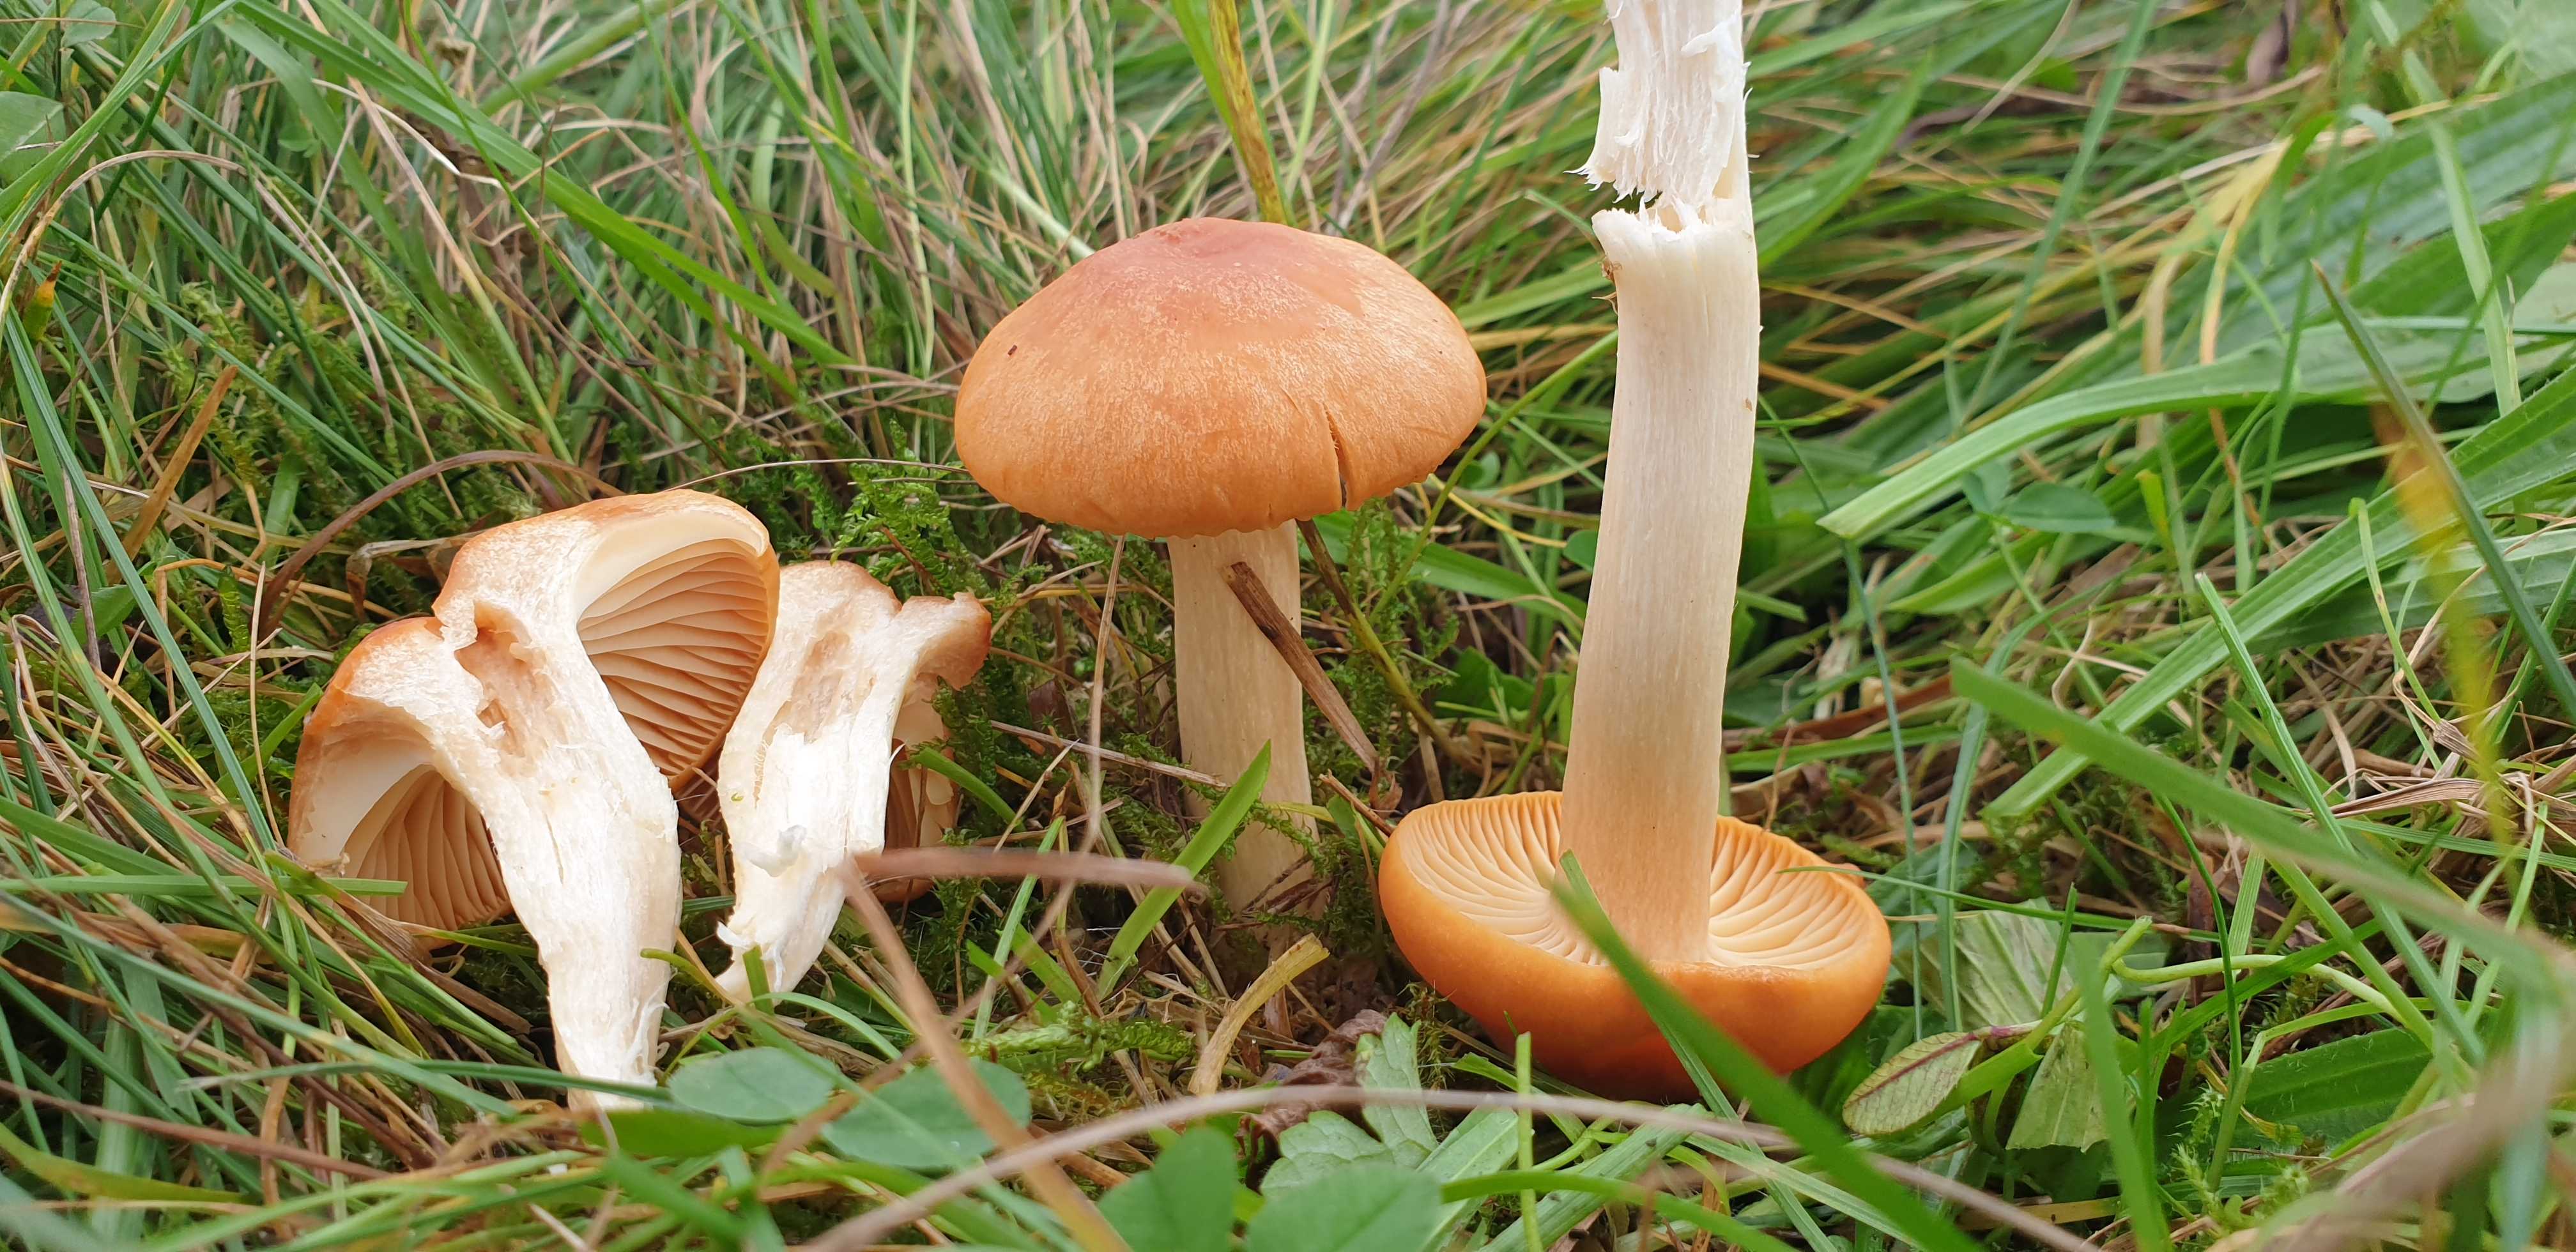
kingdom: Fungi
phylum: Basidiomycota
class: Agaricomycetes
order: Agaricales
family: Hygrophoraceae
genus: Cuphophyllus
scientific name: Cuphophyllus pratensis
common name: eng-vokshat
